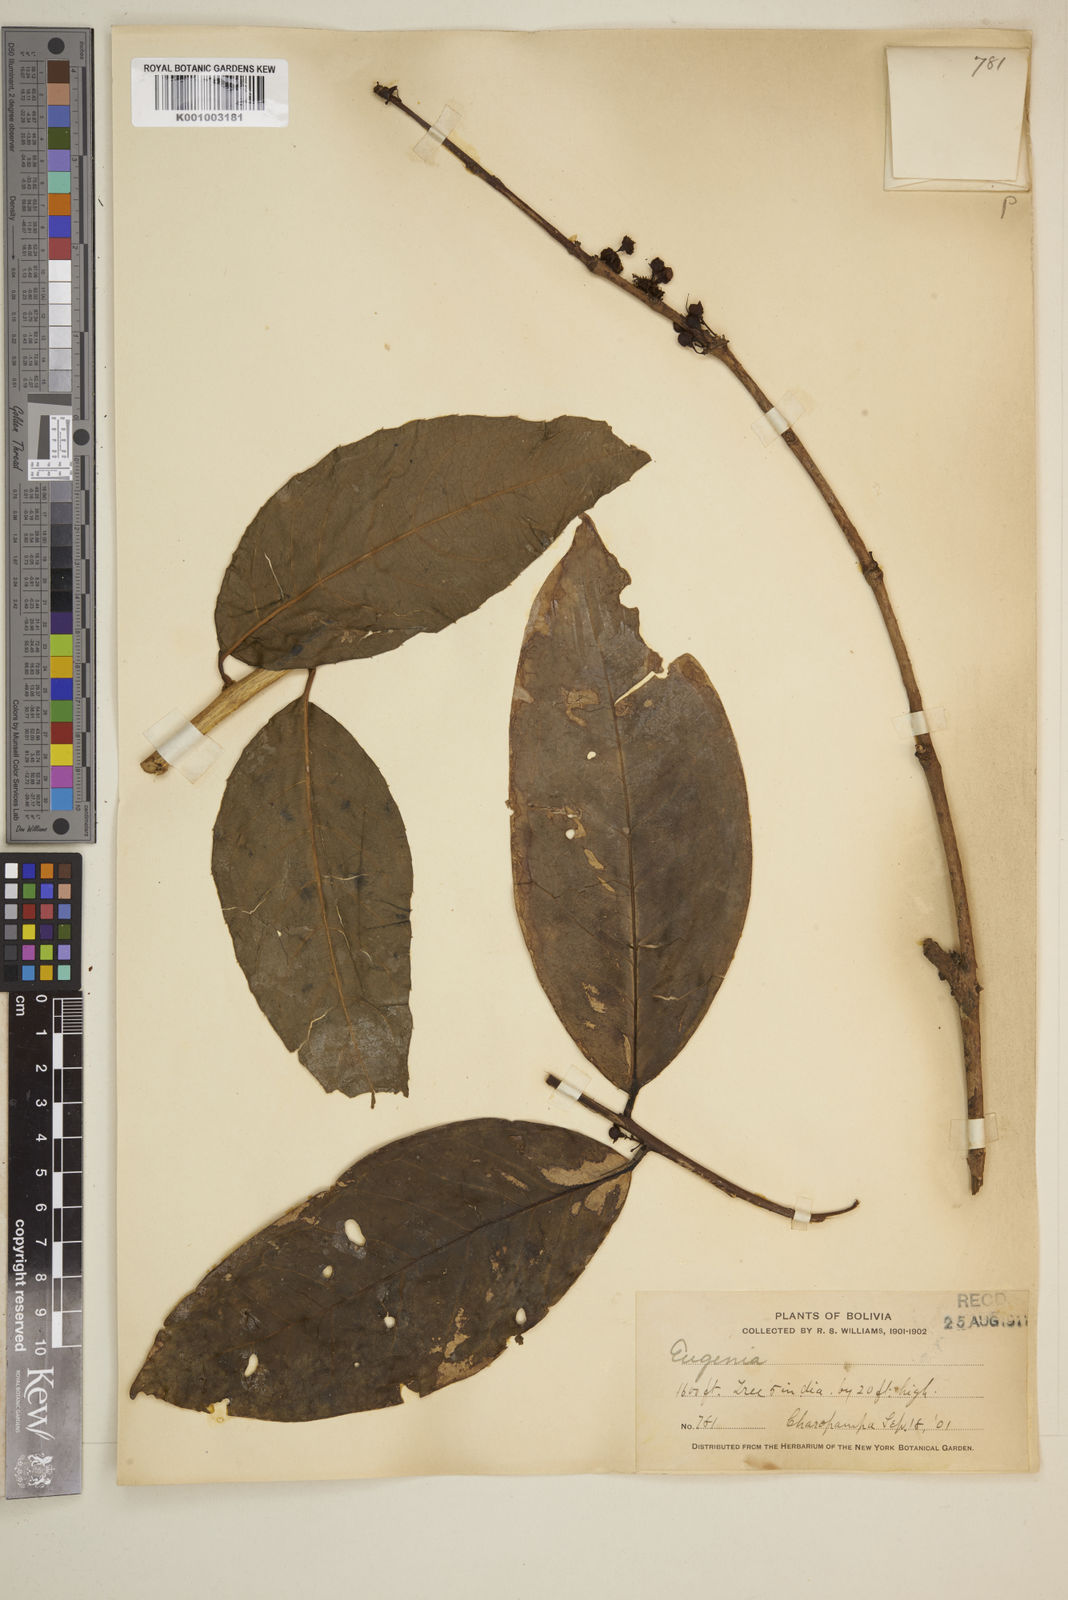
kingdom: Plantae
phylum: Tracheophyta
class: Magnoliopsida
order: Myrtales
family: Myrtaceae
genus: Eugenia
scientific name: Eugenia
